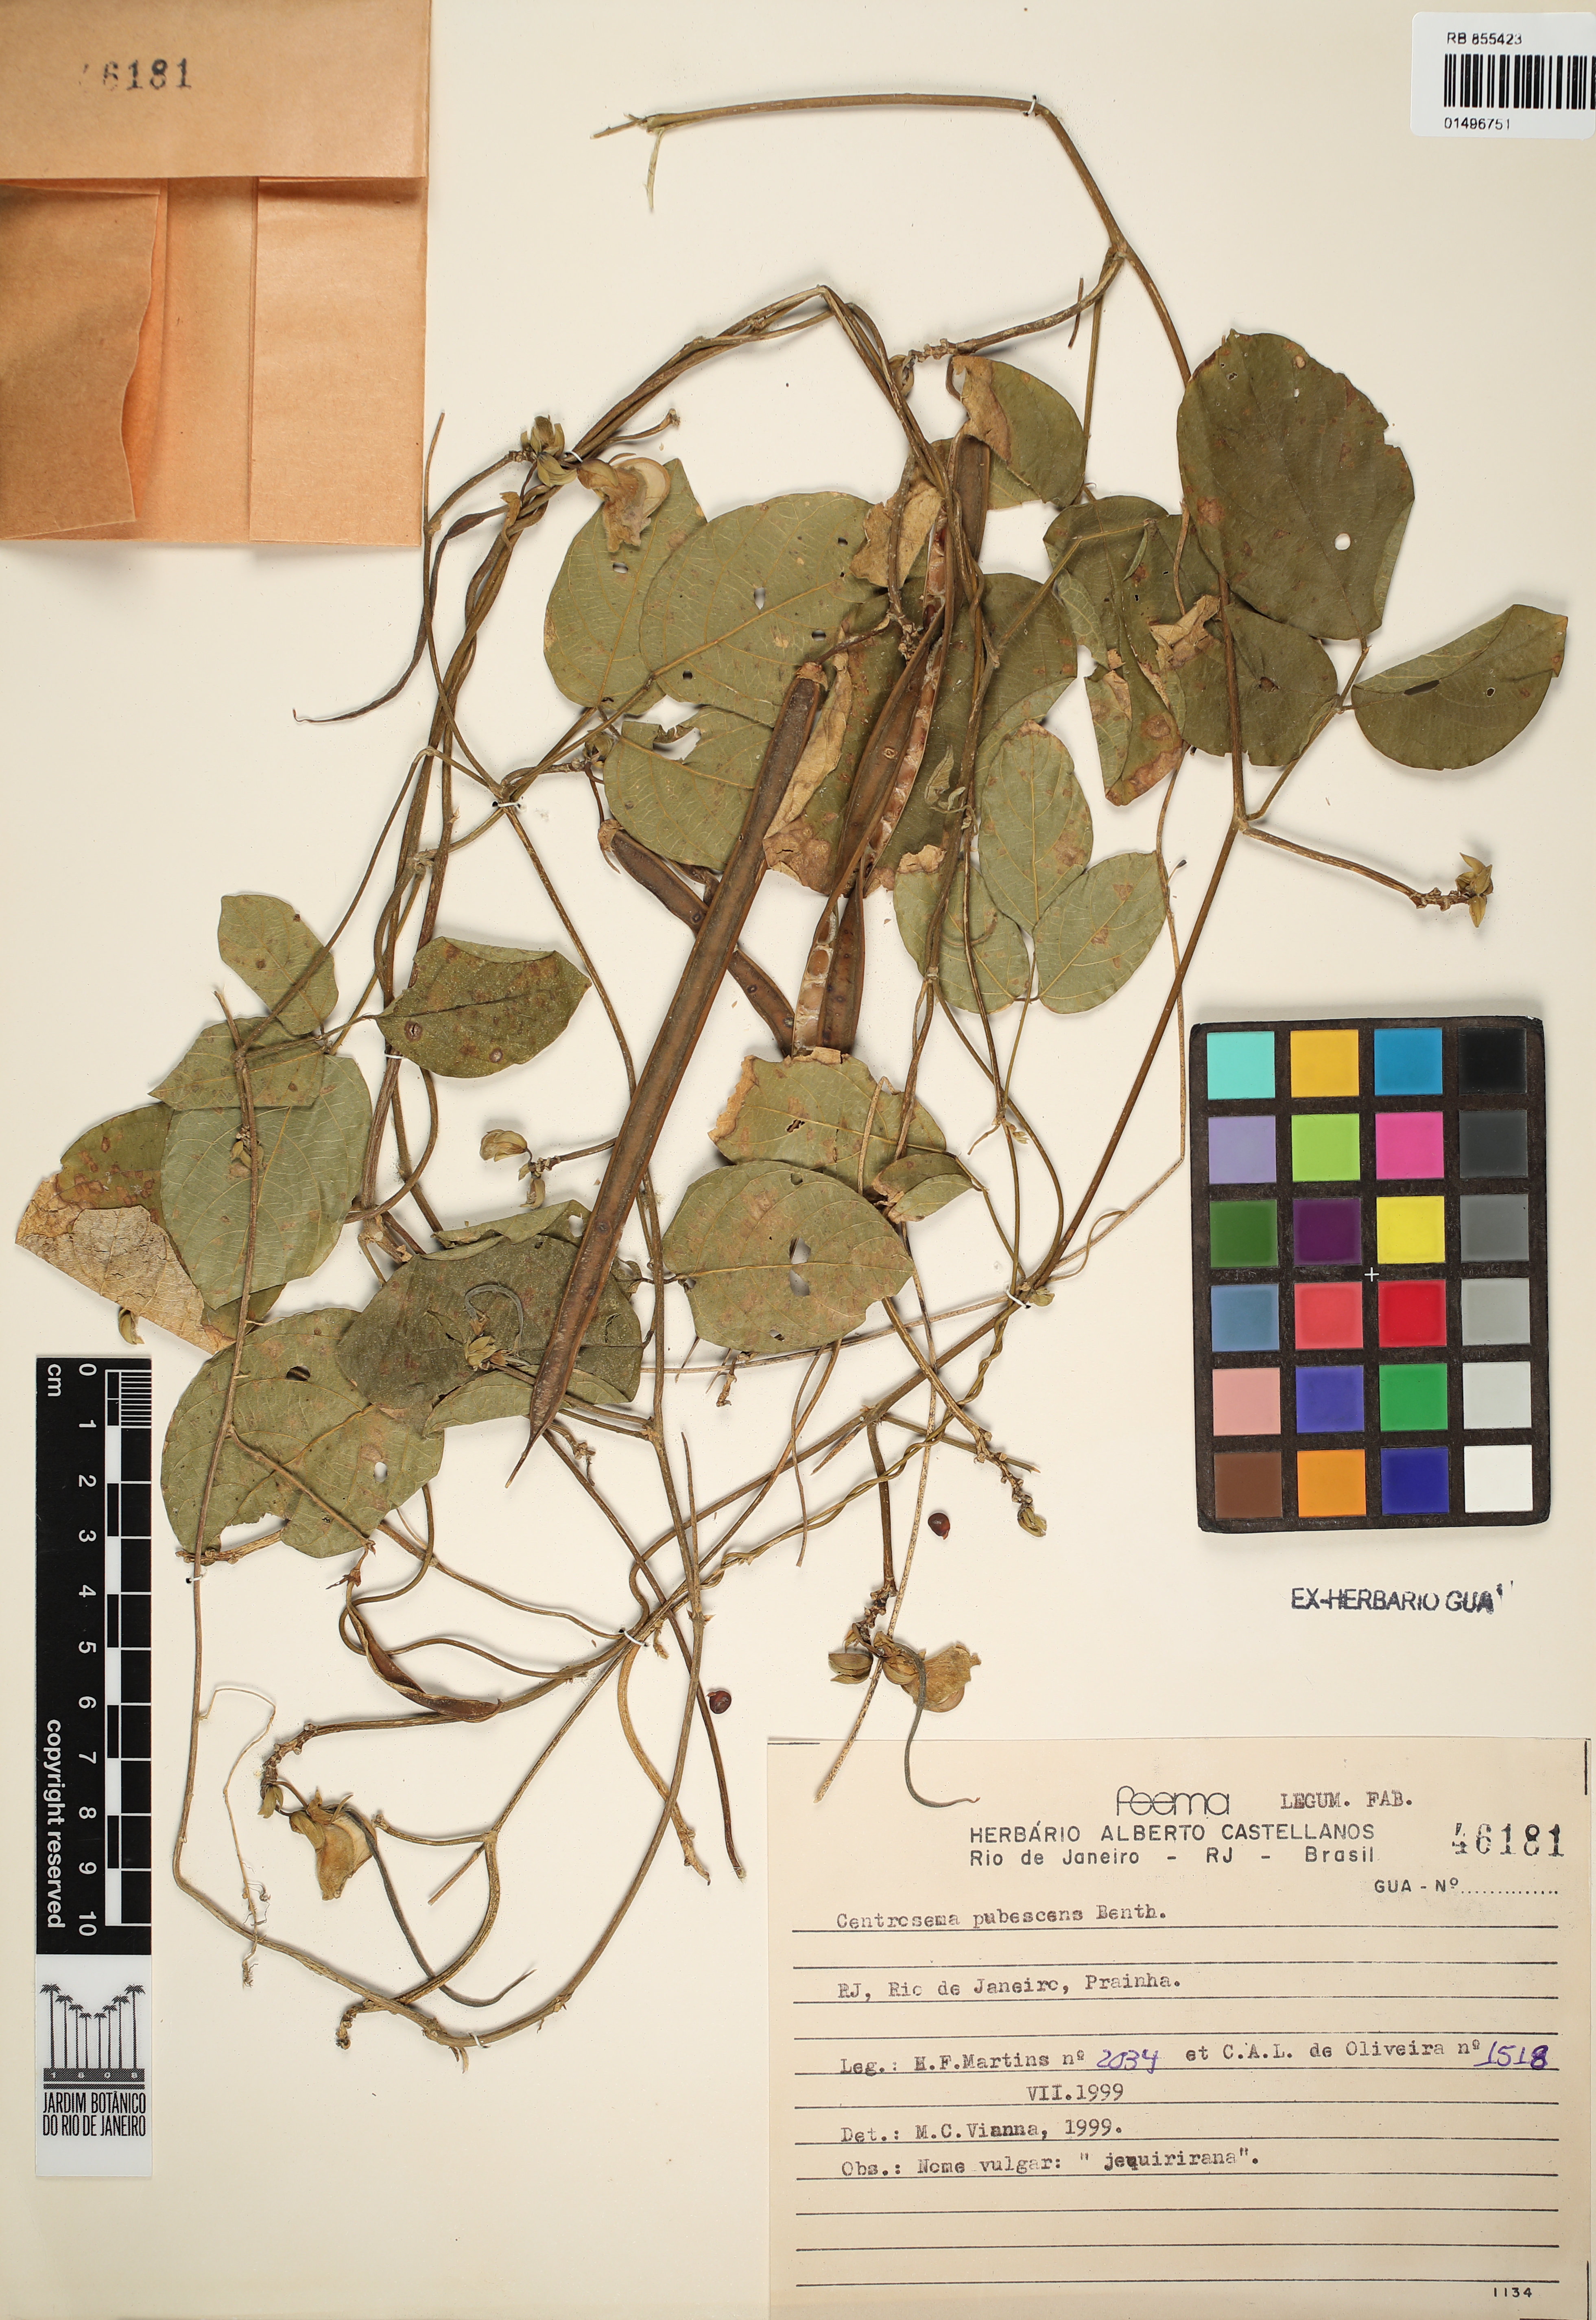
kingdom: Plantae
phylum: Tracheophyta
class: Magnoliopsida
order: Fabales
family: Fabaceae
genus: Centrosema
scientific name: Centrosema pubescens
